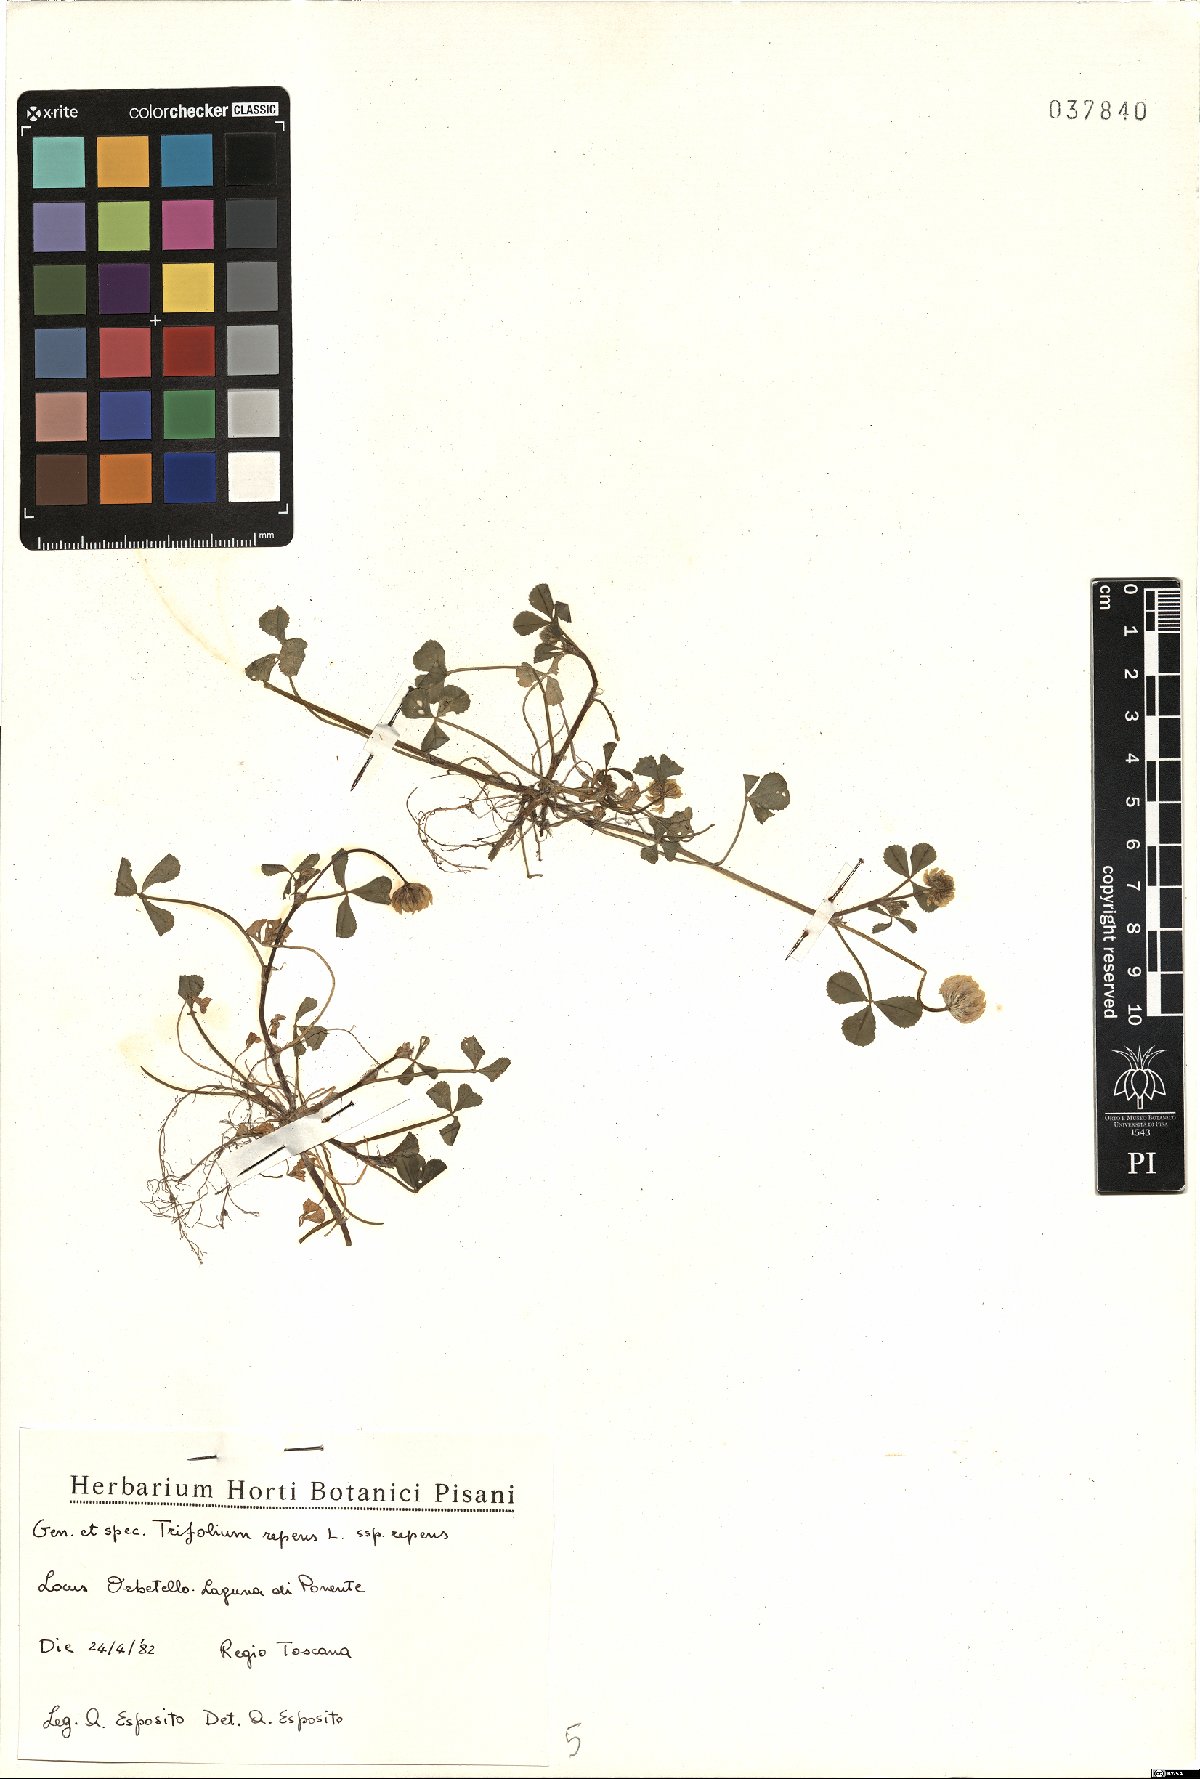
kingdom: Plantae
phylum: Tracheophyta
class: Magnoliopsida
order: Fabales
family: Fabaceae
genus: Trifolium
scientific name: Trifolium repens
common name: White clover
